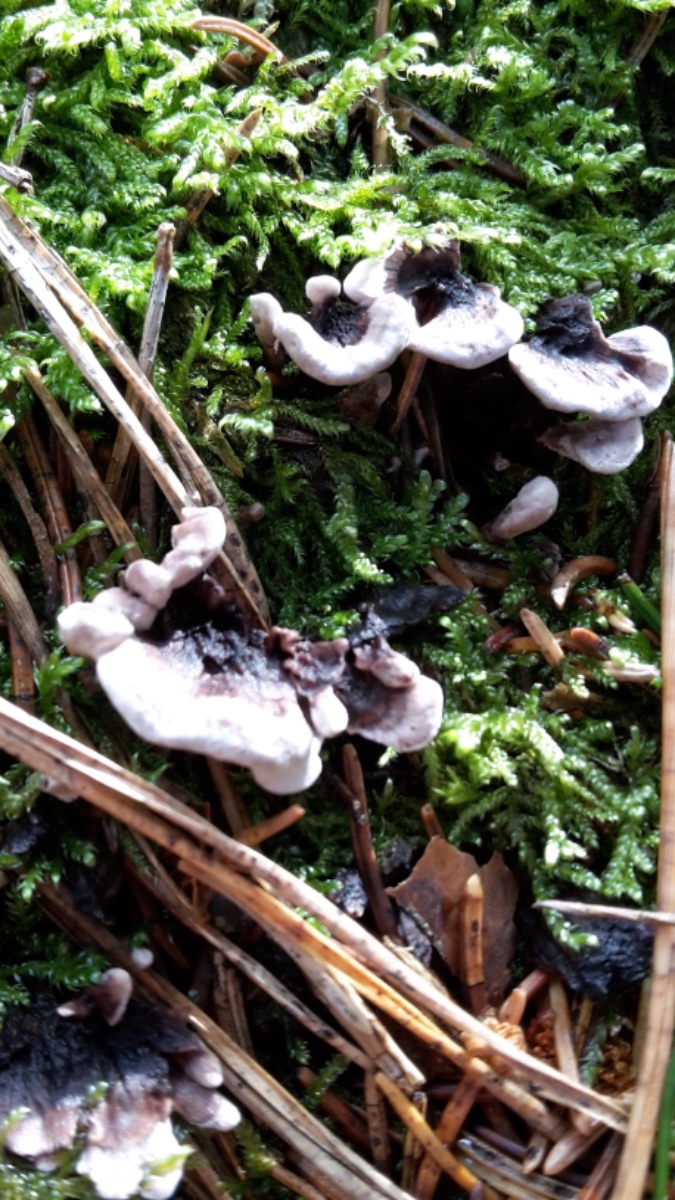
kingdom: Fungi
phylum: Basidiomycota
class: Agaricomycetes
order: Thelephorales
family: Thelephoraceae
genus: Phellodon
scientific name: Phellodon tomentosus
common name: vellugtende duftpigsvamp
